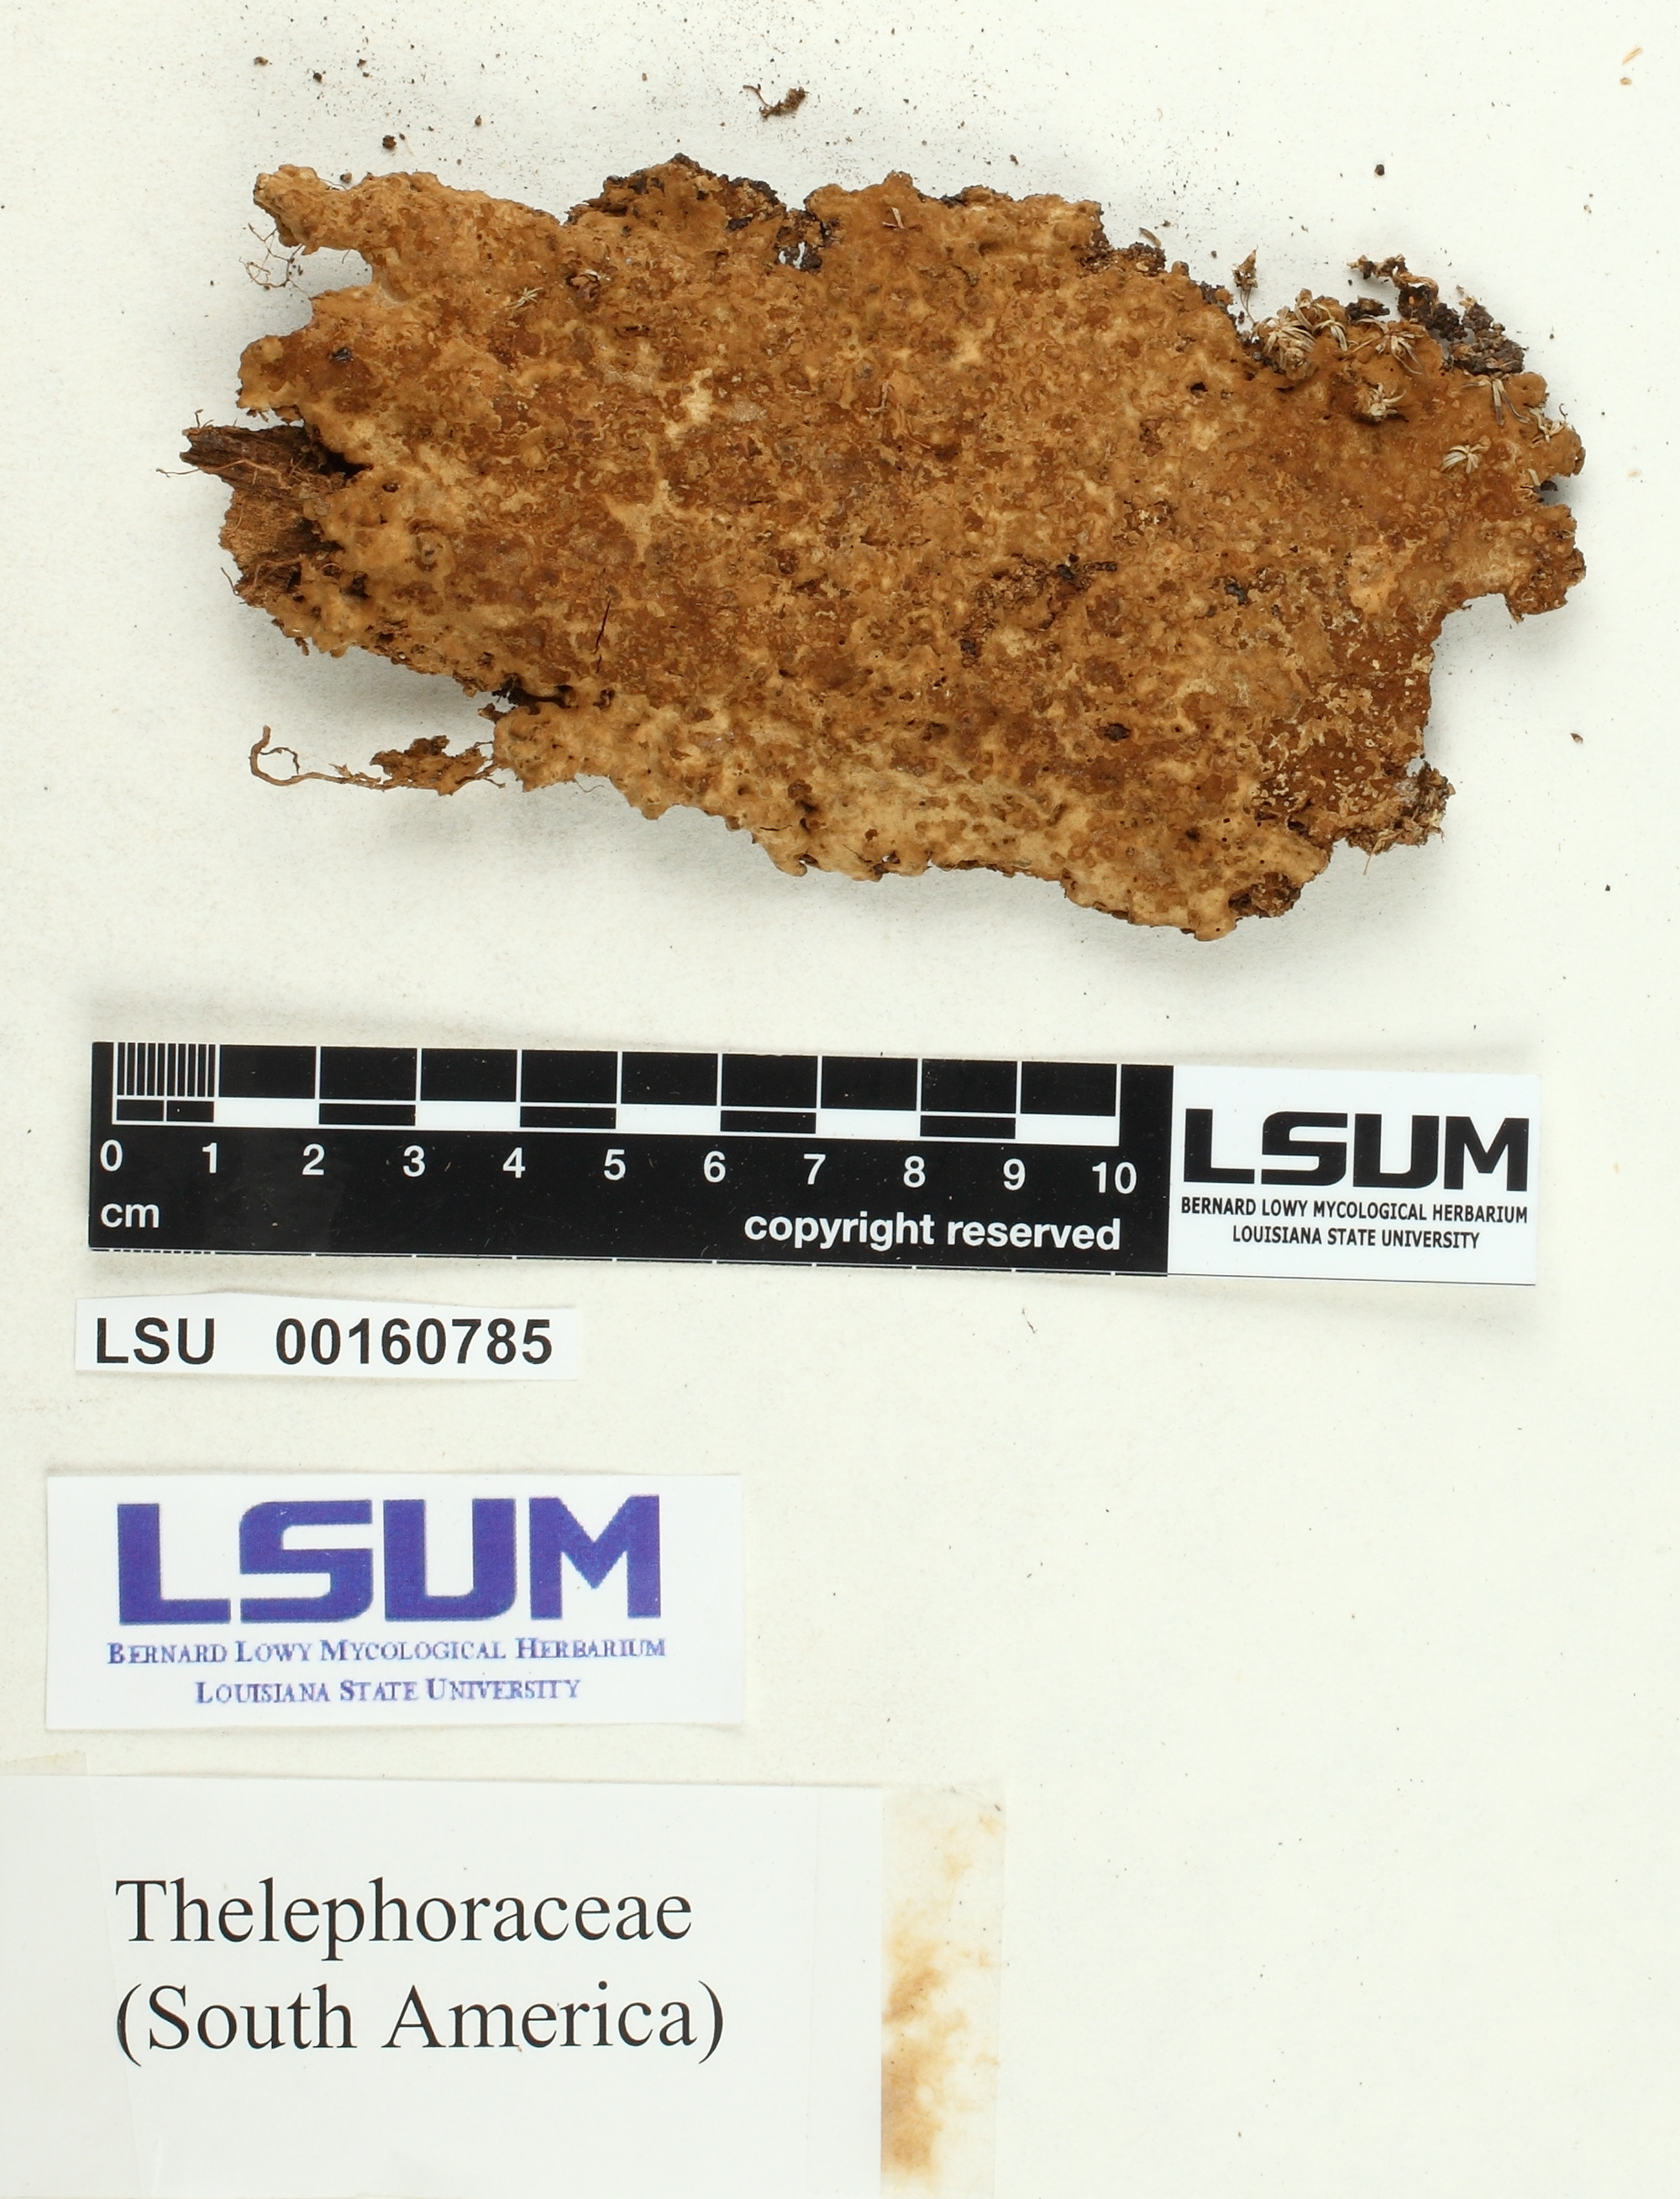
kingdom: Fungi
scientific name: Fungi
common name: Fungi
